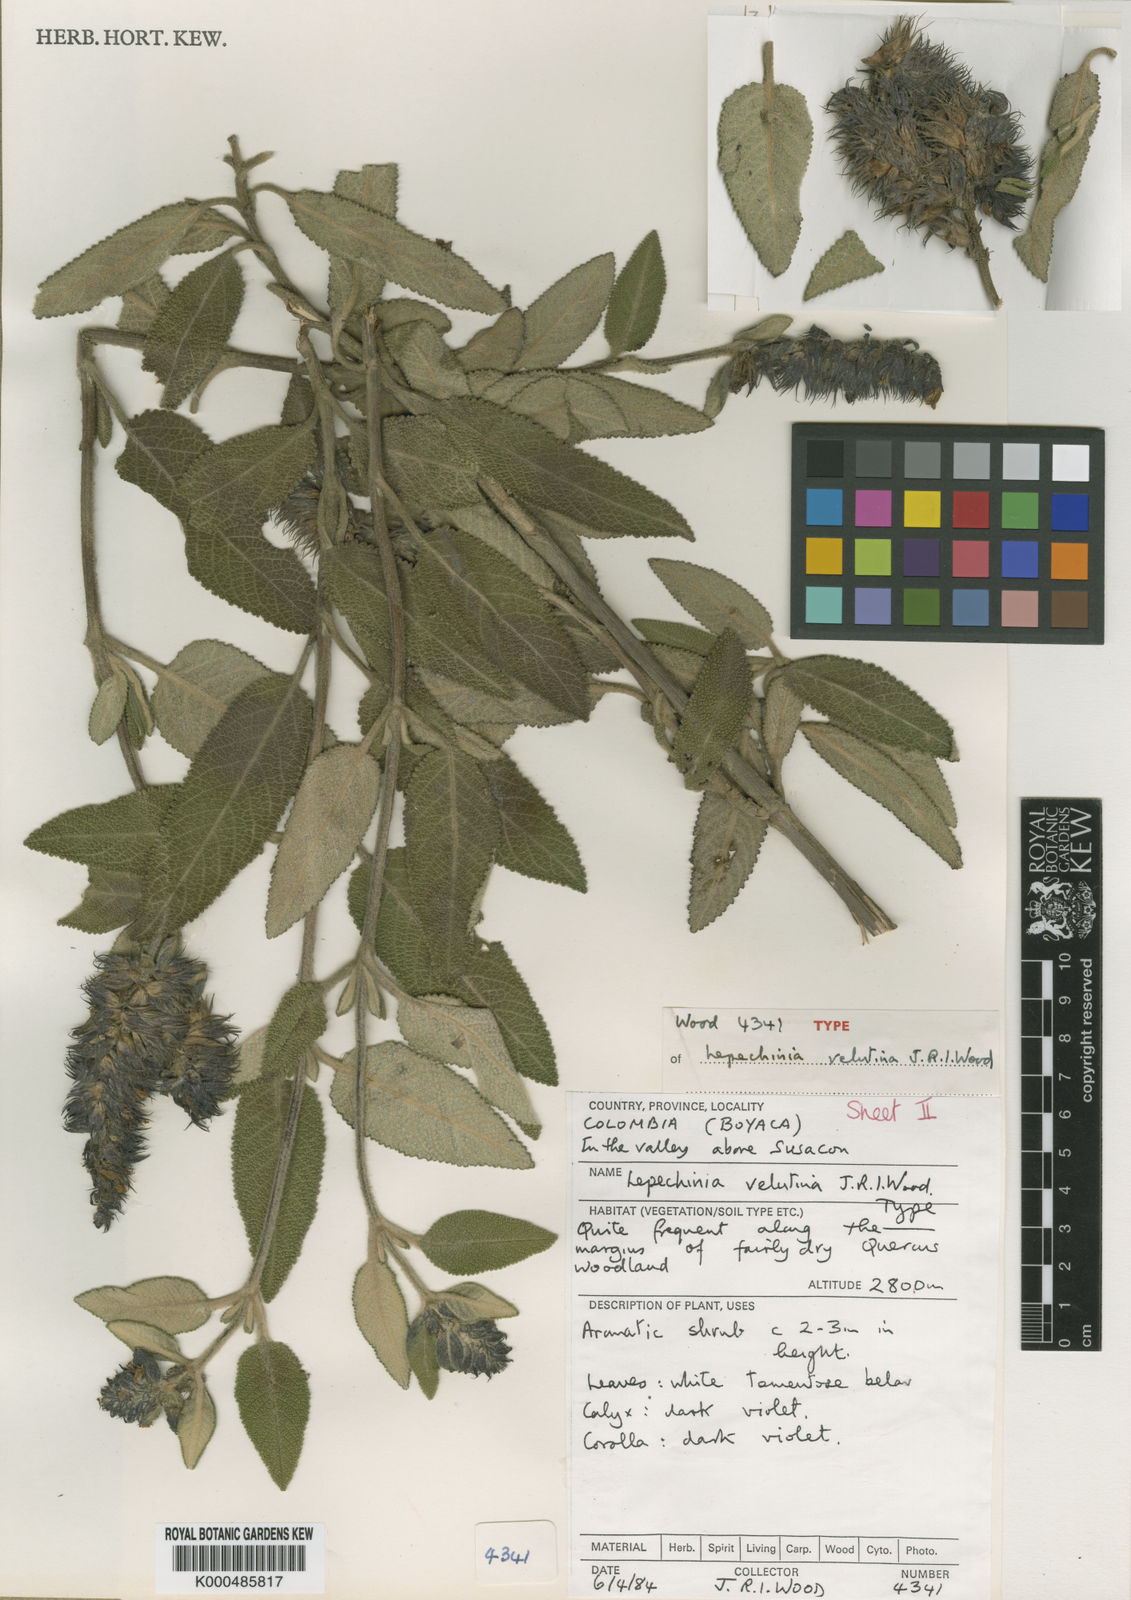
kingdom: Plantae
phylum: Tracheophyta
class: Magnoliopsida
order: Lamiales
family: Lamiaceae
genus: Lepechinia
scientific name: Lepechinia velutina
